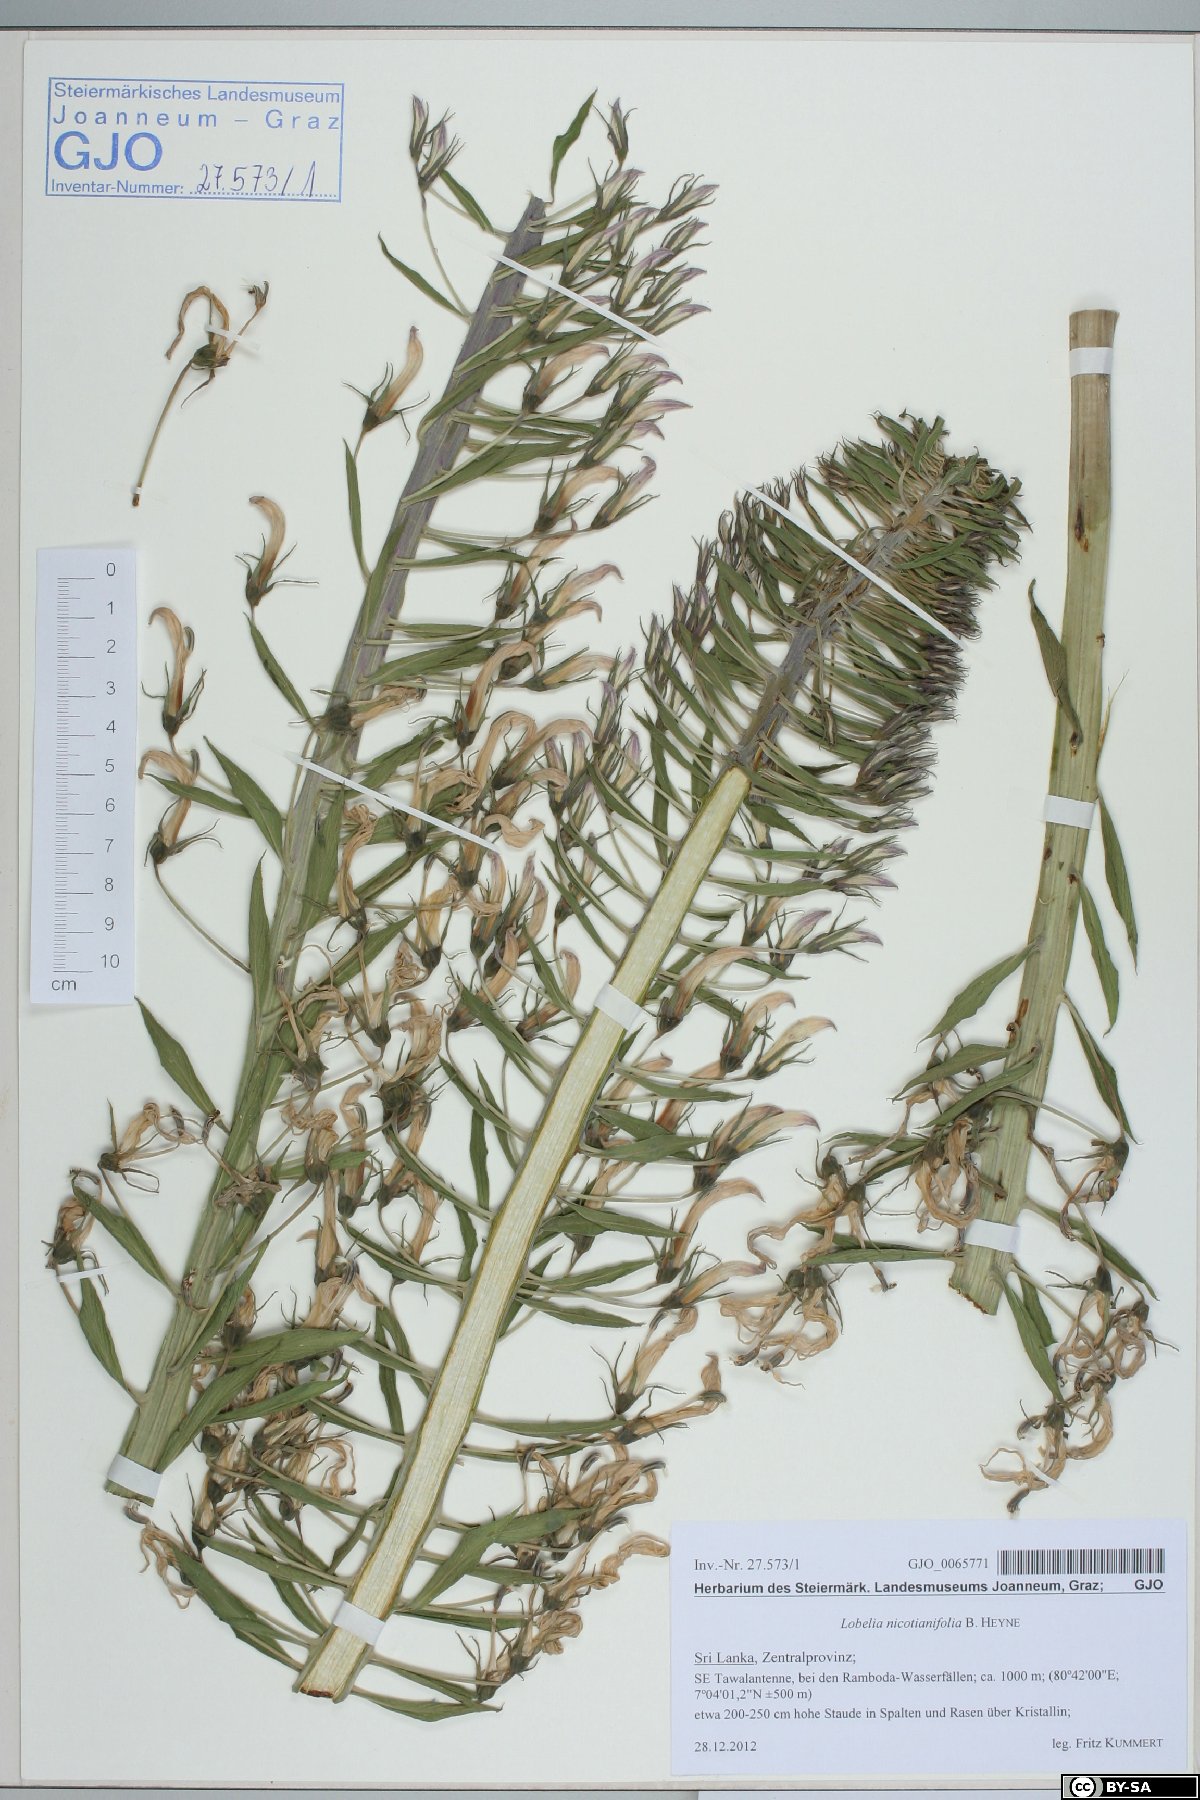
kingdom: Plantae
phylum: Tracheophyta
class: Magnoliopsida
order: Asterales
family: Campanulaceae
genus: Lobelia
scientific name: Lobelia nicotianifolia
